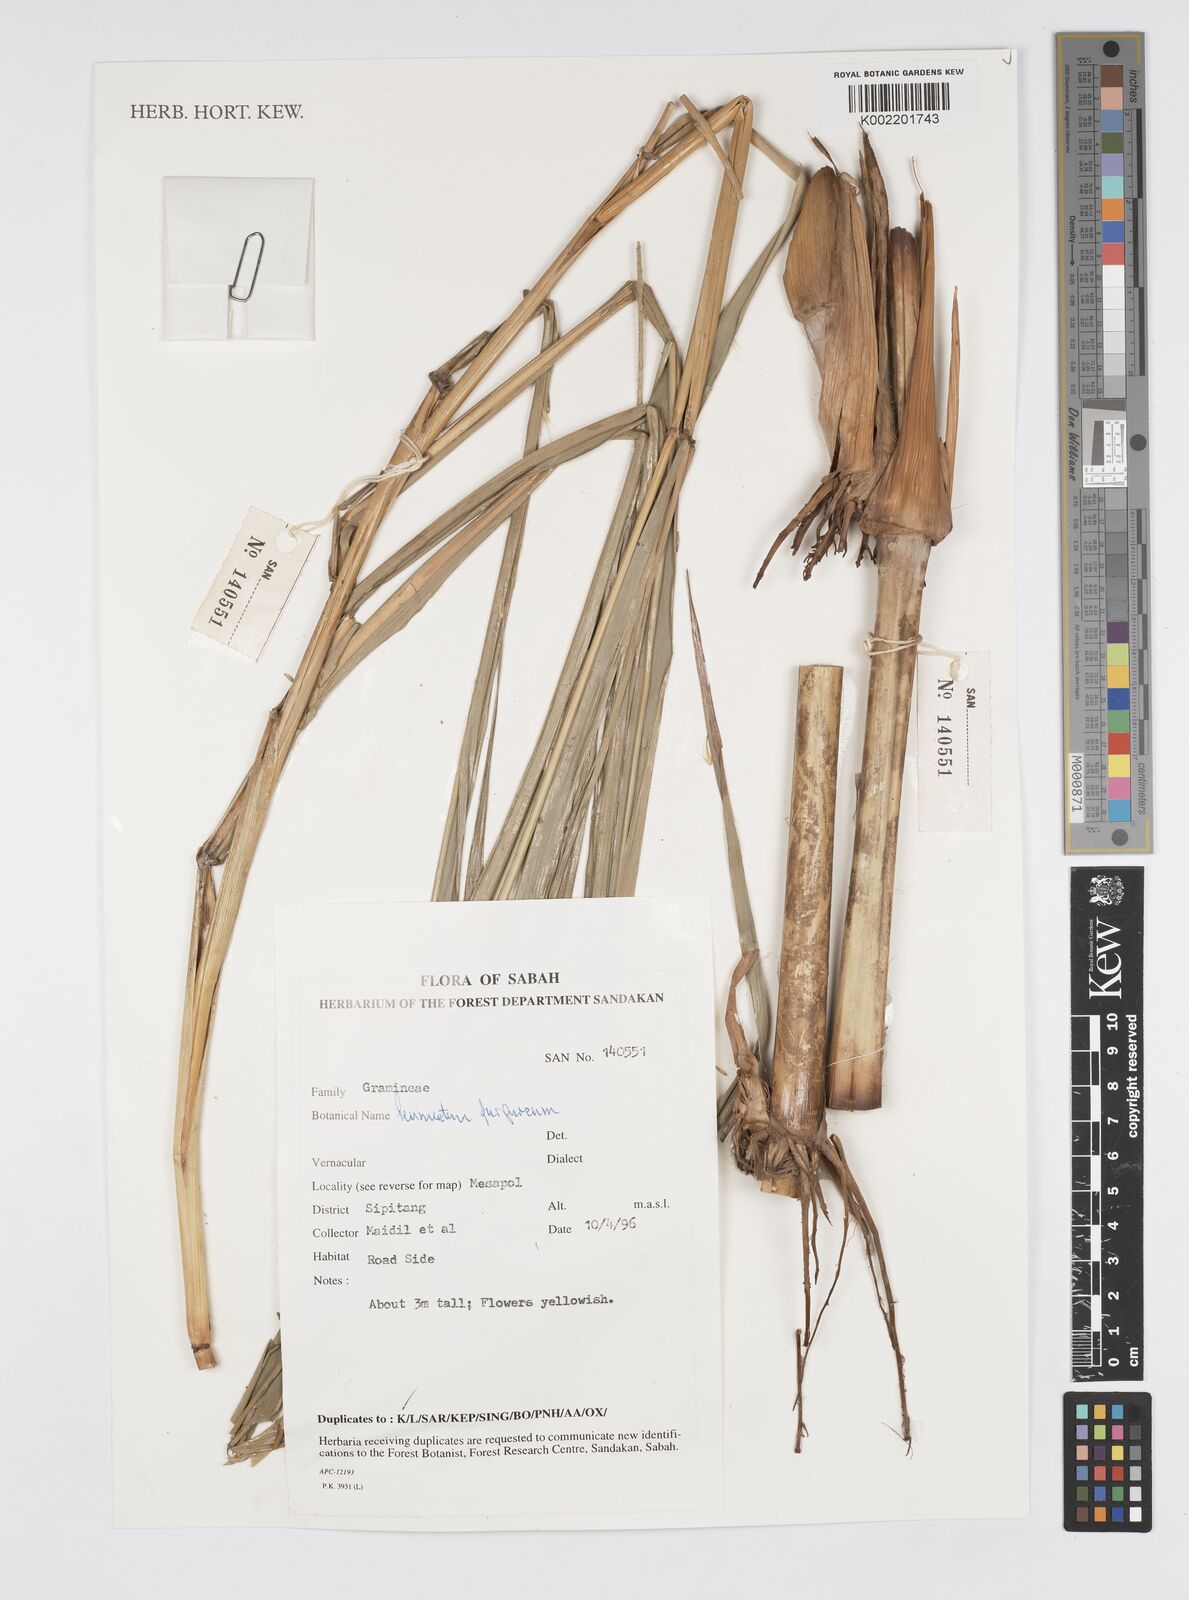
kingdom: Plantae
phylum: Tracheophyta
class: Liliopsida
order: Poales
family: Poaceae
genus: Cenchrus
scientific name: Cenchrus purpureus
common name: Elephant grass
